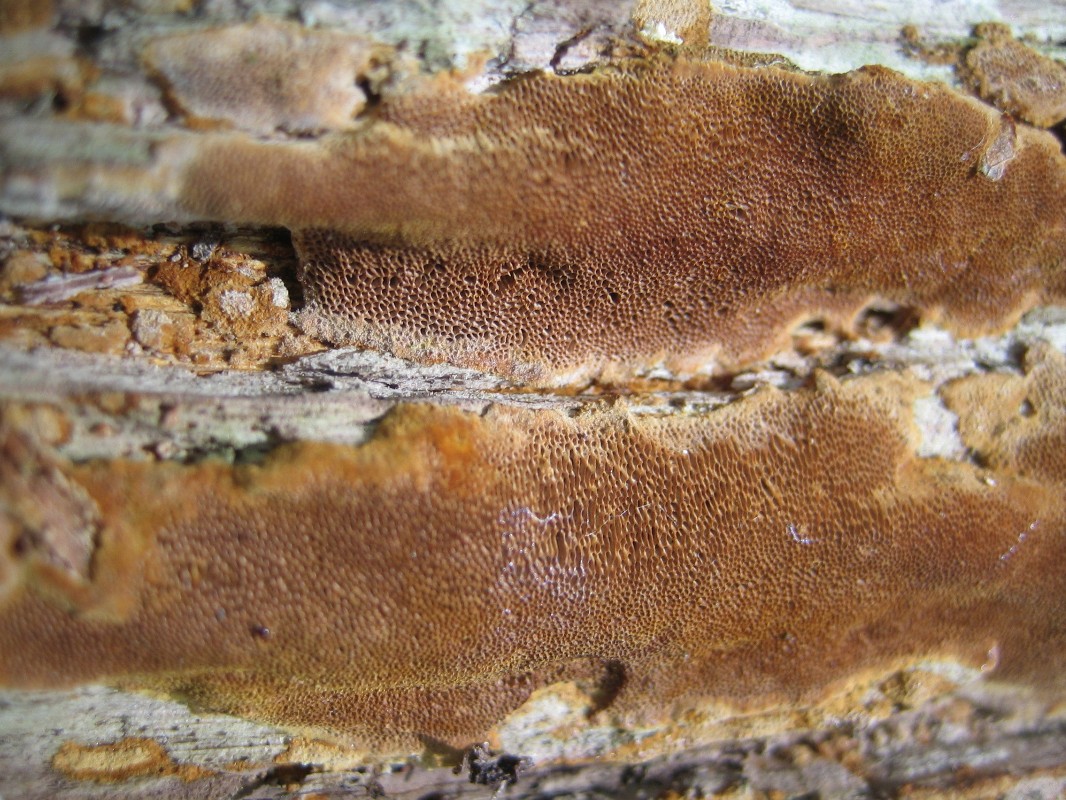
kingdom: Fungi
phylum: Basidiomycota
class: Agaricomycetes
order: Hymenochaetales
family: Hymenochaetaceae
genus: Fuscoporia
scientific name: Fuscoporia ferrea
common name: skorpe-ildporesvamp
